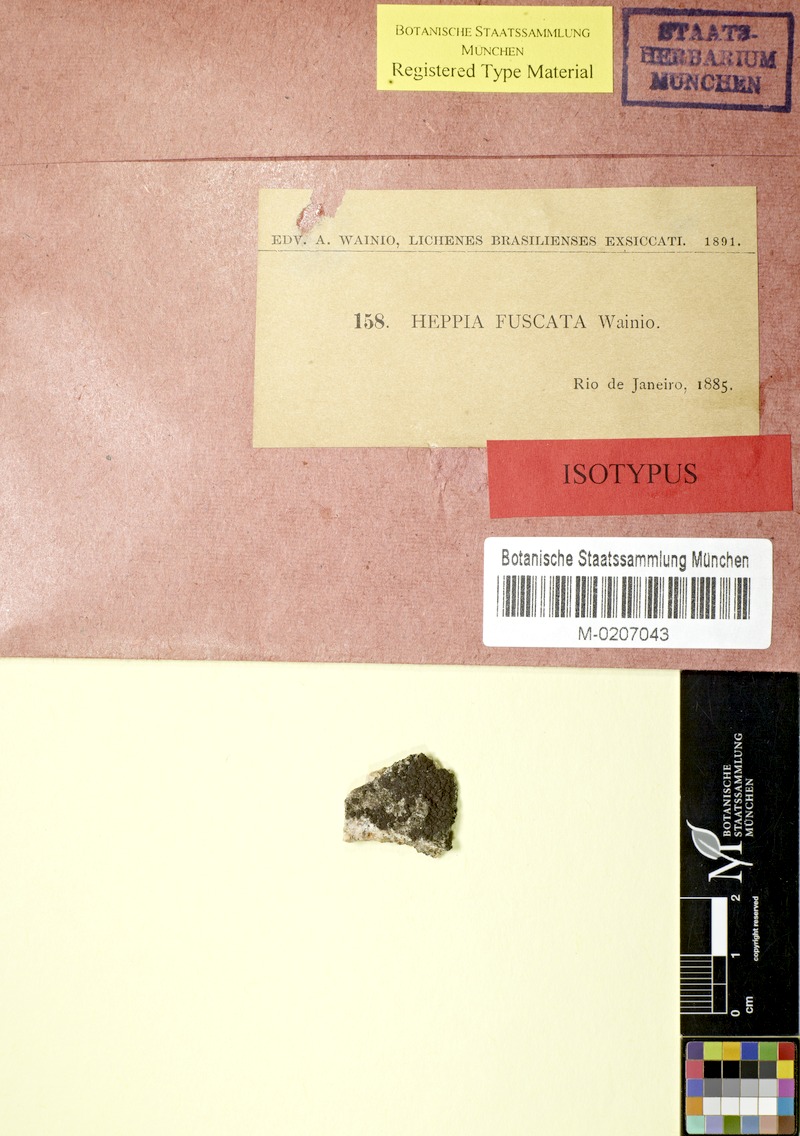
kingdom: Fungi
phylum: Ascomycota
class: Lichinomycetes
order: Lichinales
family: Lichinaceae
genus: Solorinaria
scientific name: Solorinaria fuscata
